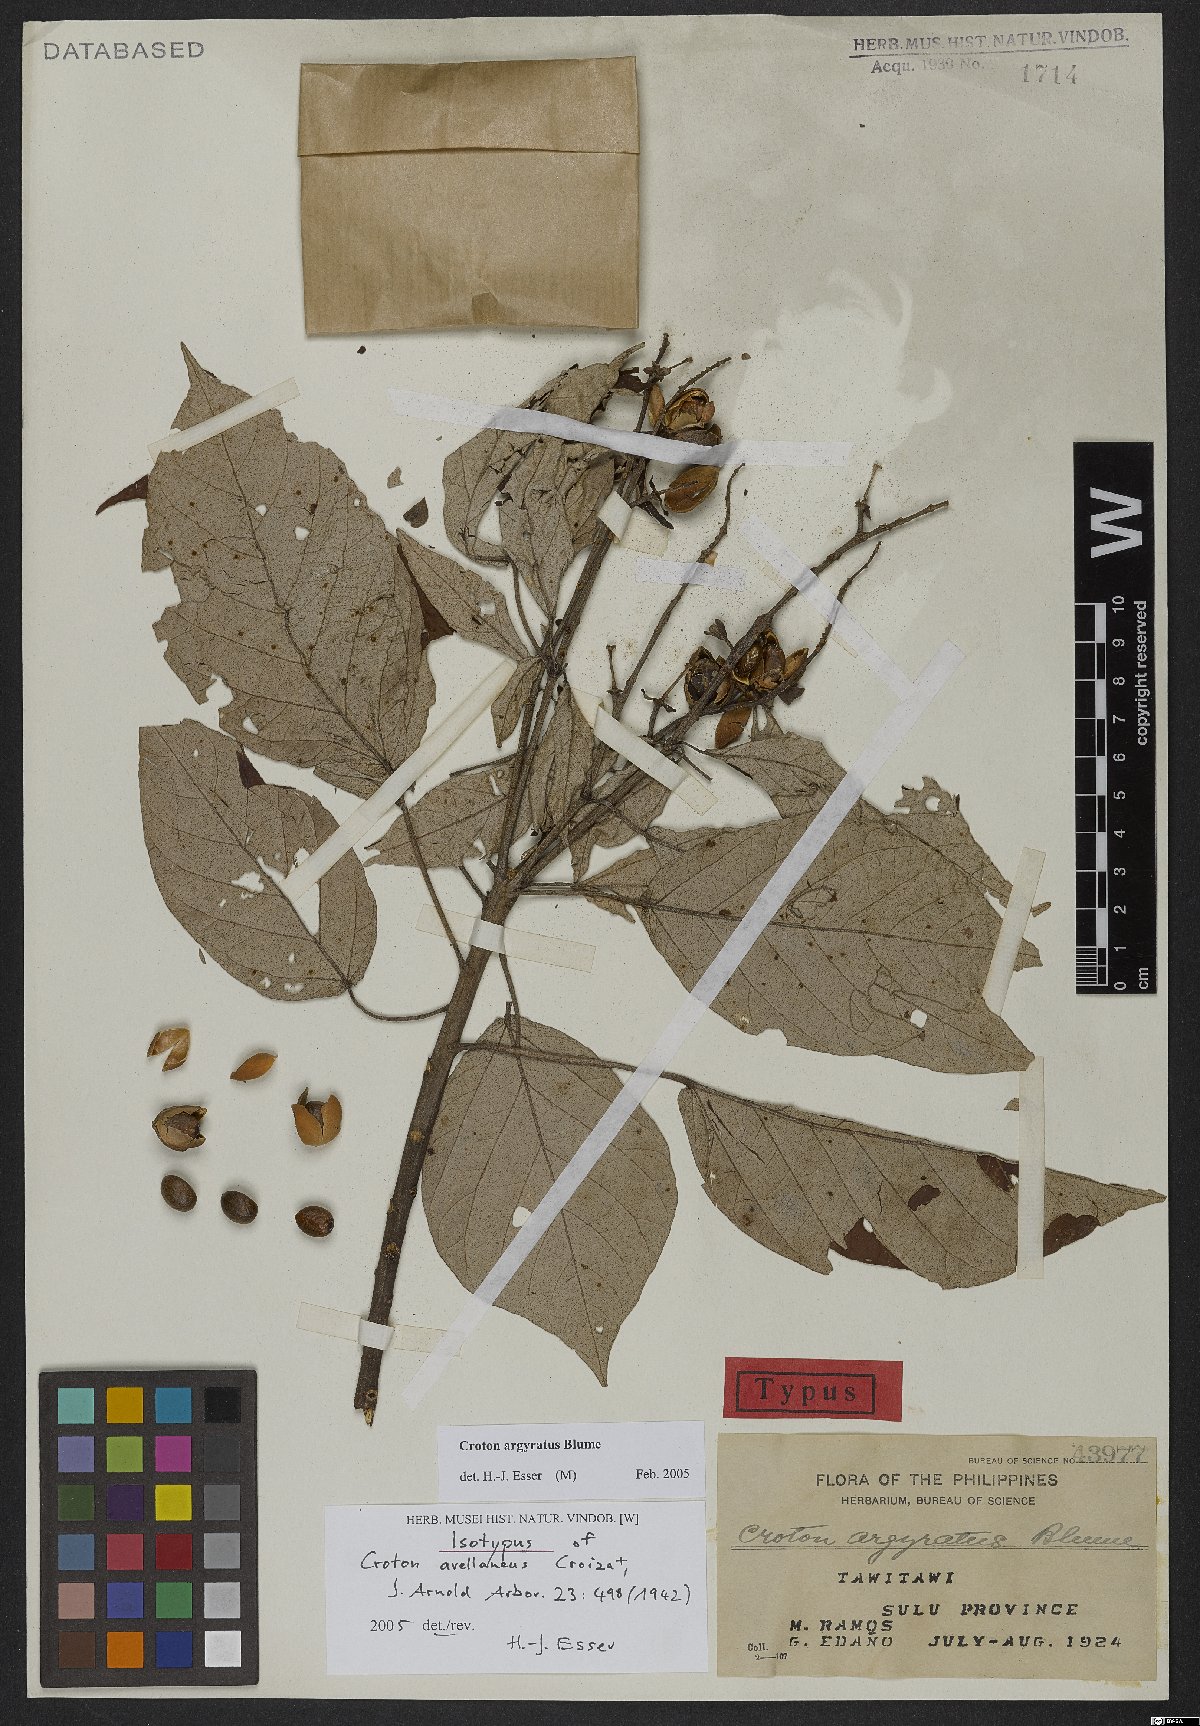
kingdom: Plantae
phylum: Tracheophyta
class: Magnoliopsida
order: Malpighiales
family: Euphorbiaceae
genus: Croton
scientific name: Croton argyratus
